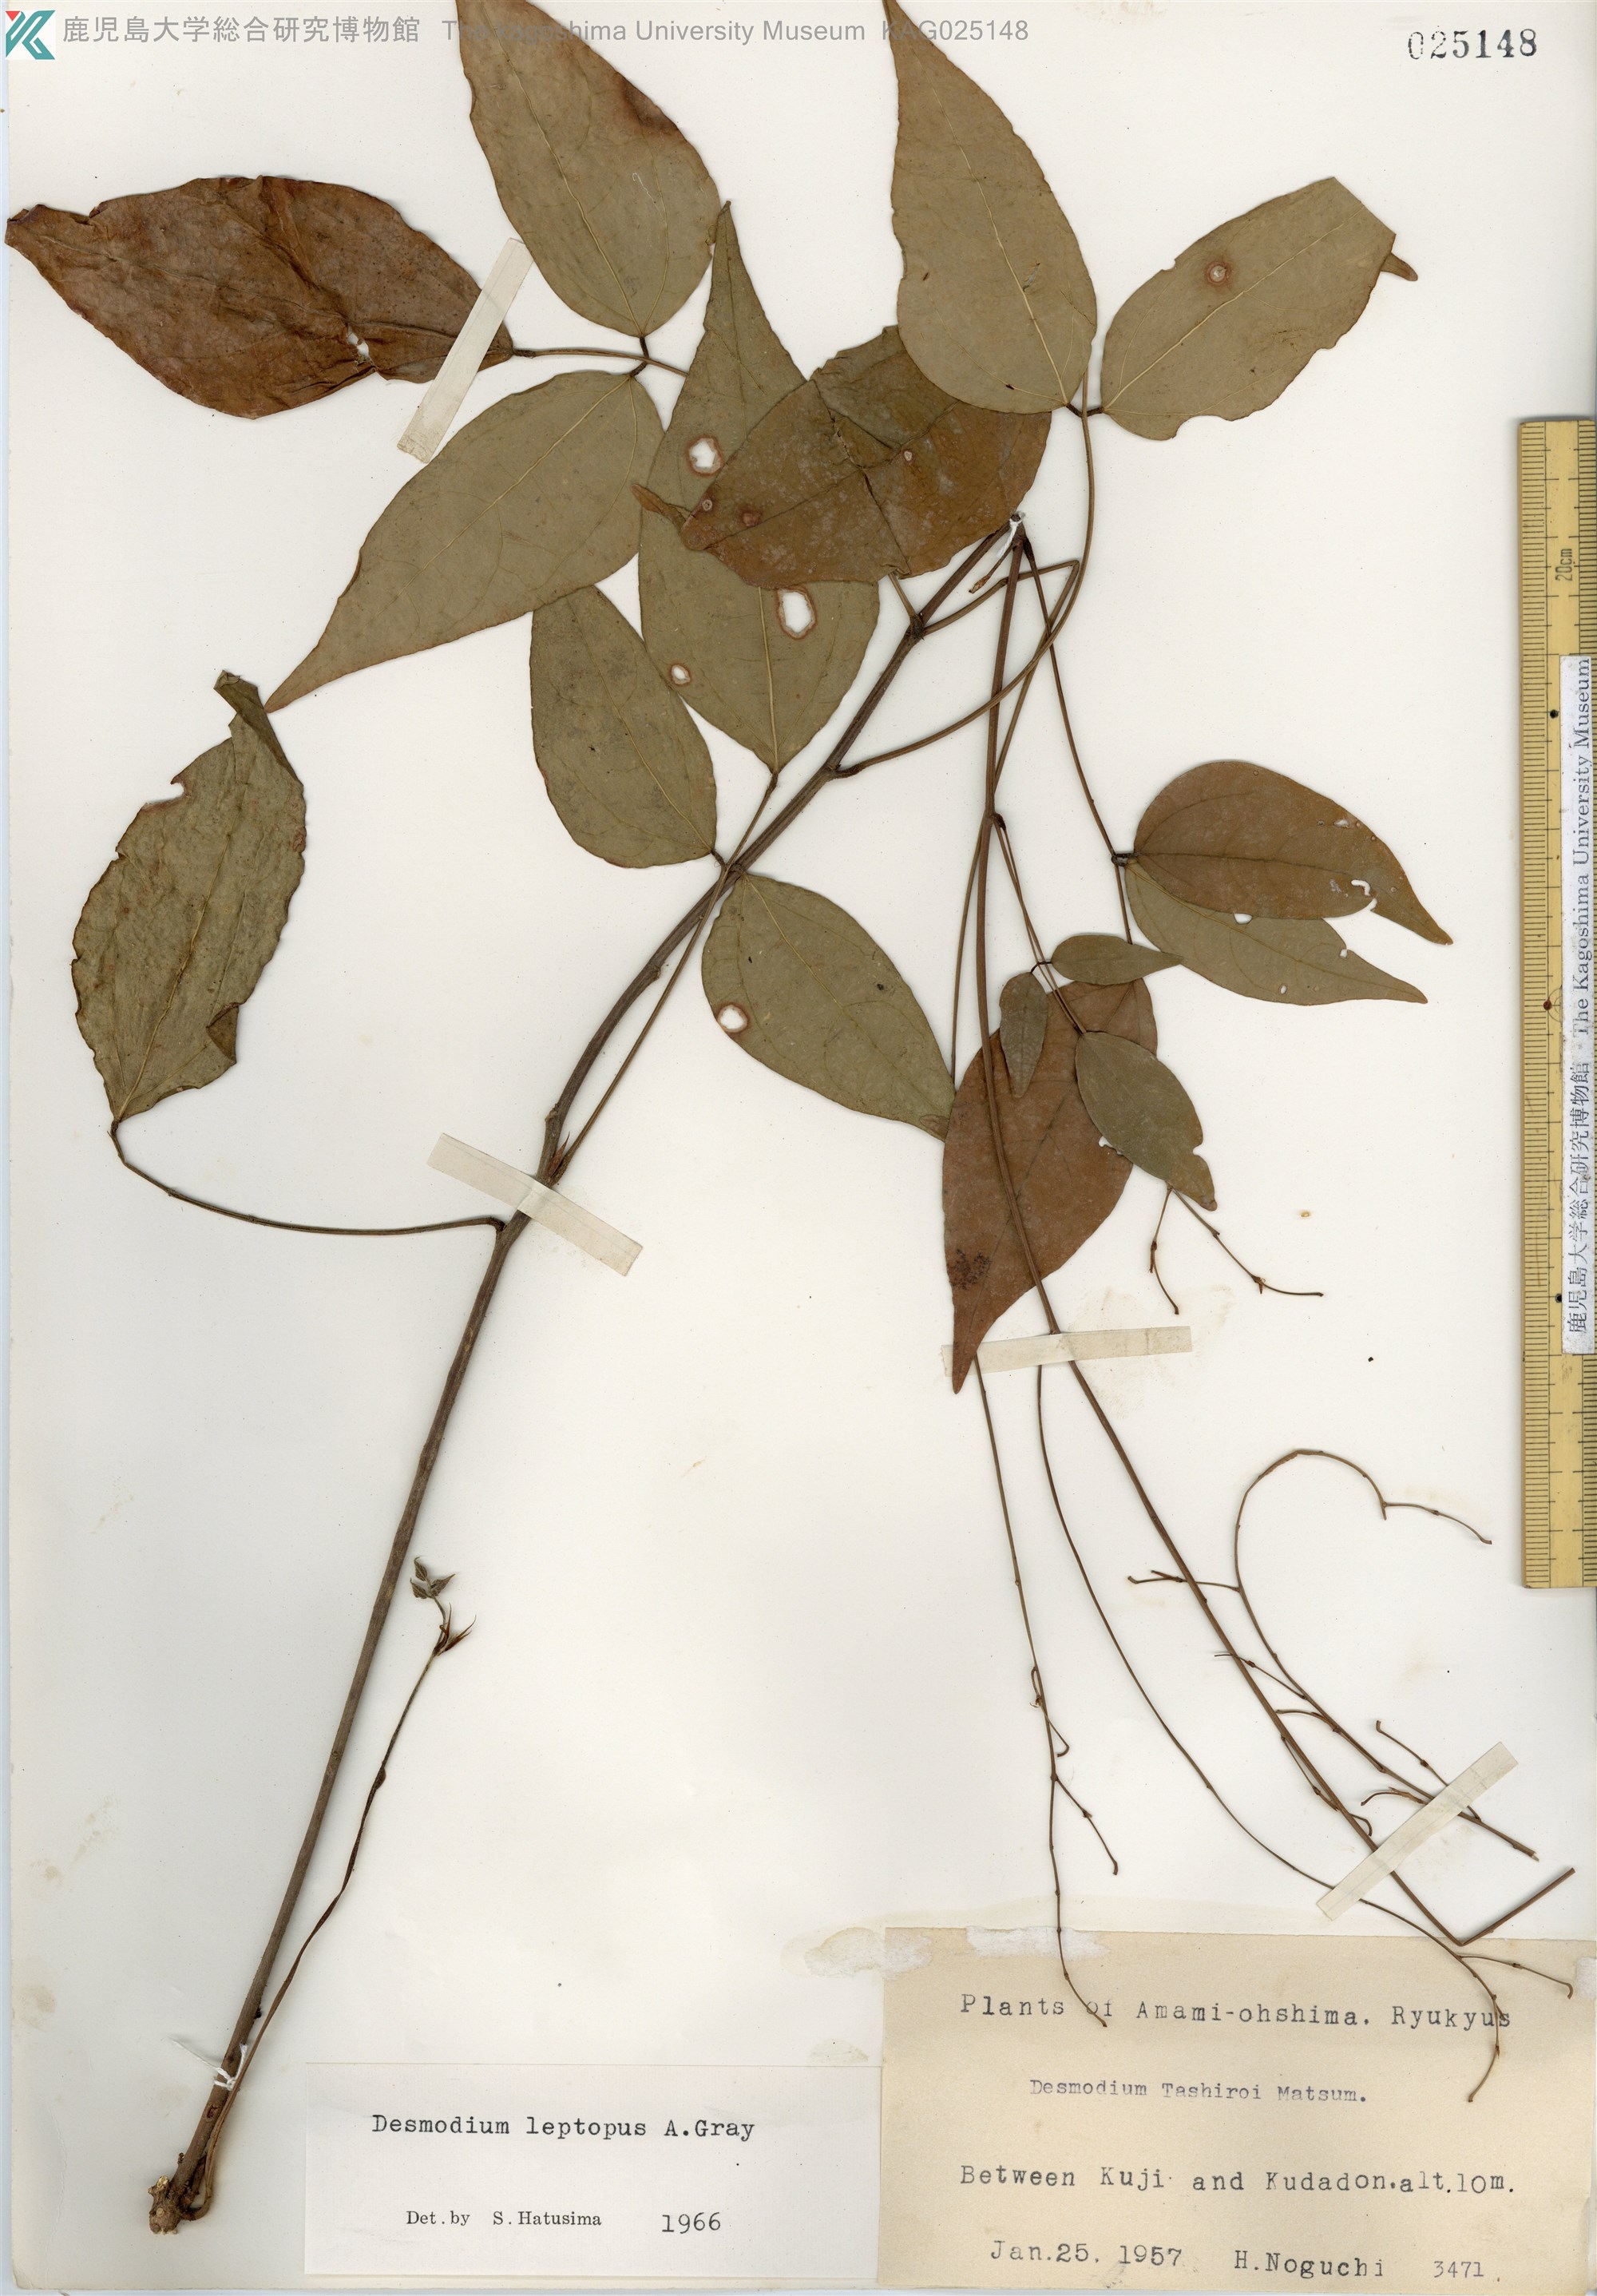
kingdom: Plantae
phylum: Tracheophyta
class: Magnoliopsida
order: Fabales
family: Fabaceae
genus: Hylodesmum
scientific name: Hylodesmum leptopus
